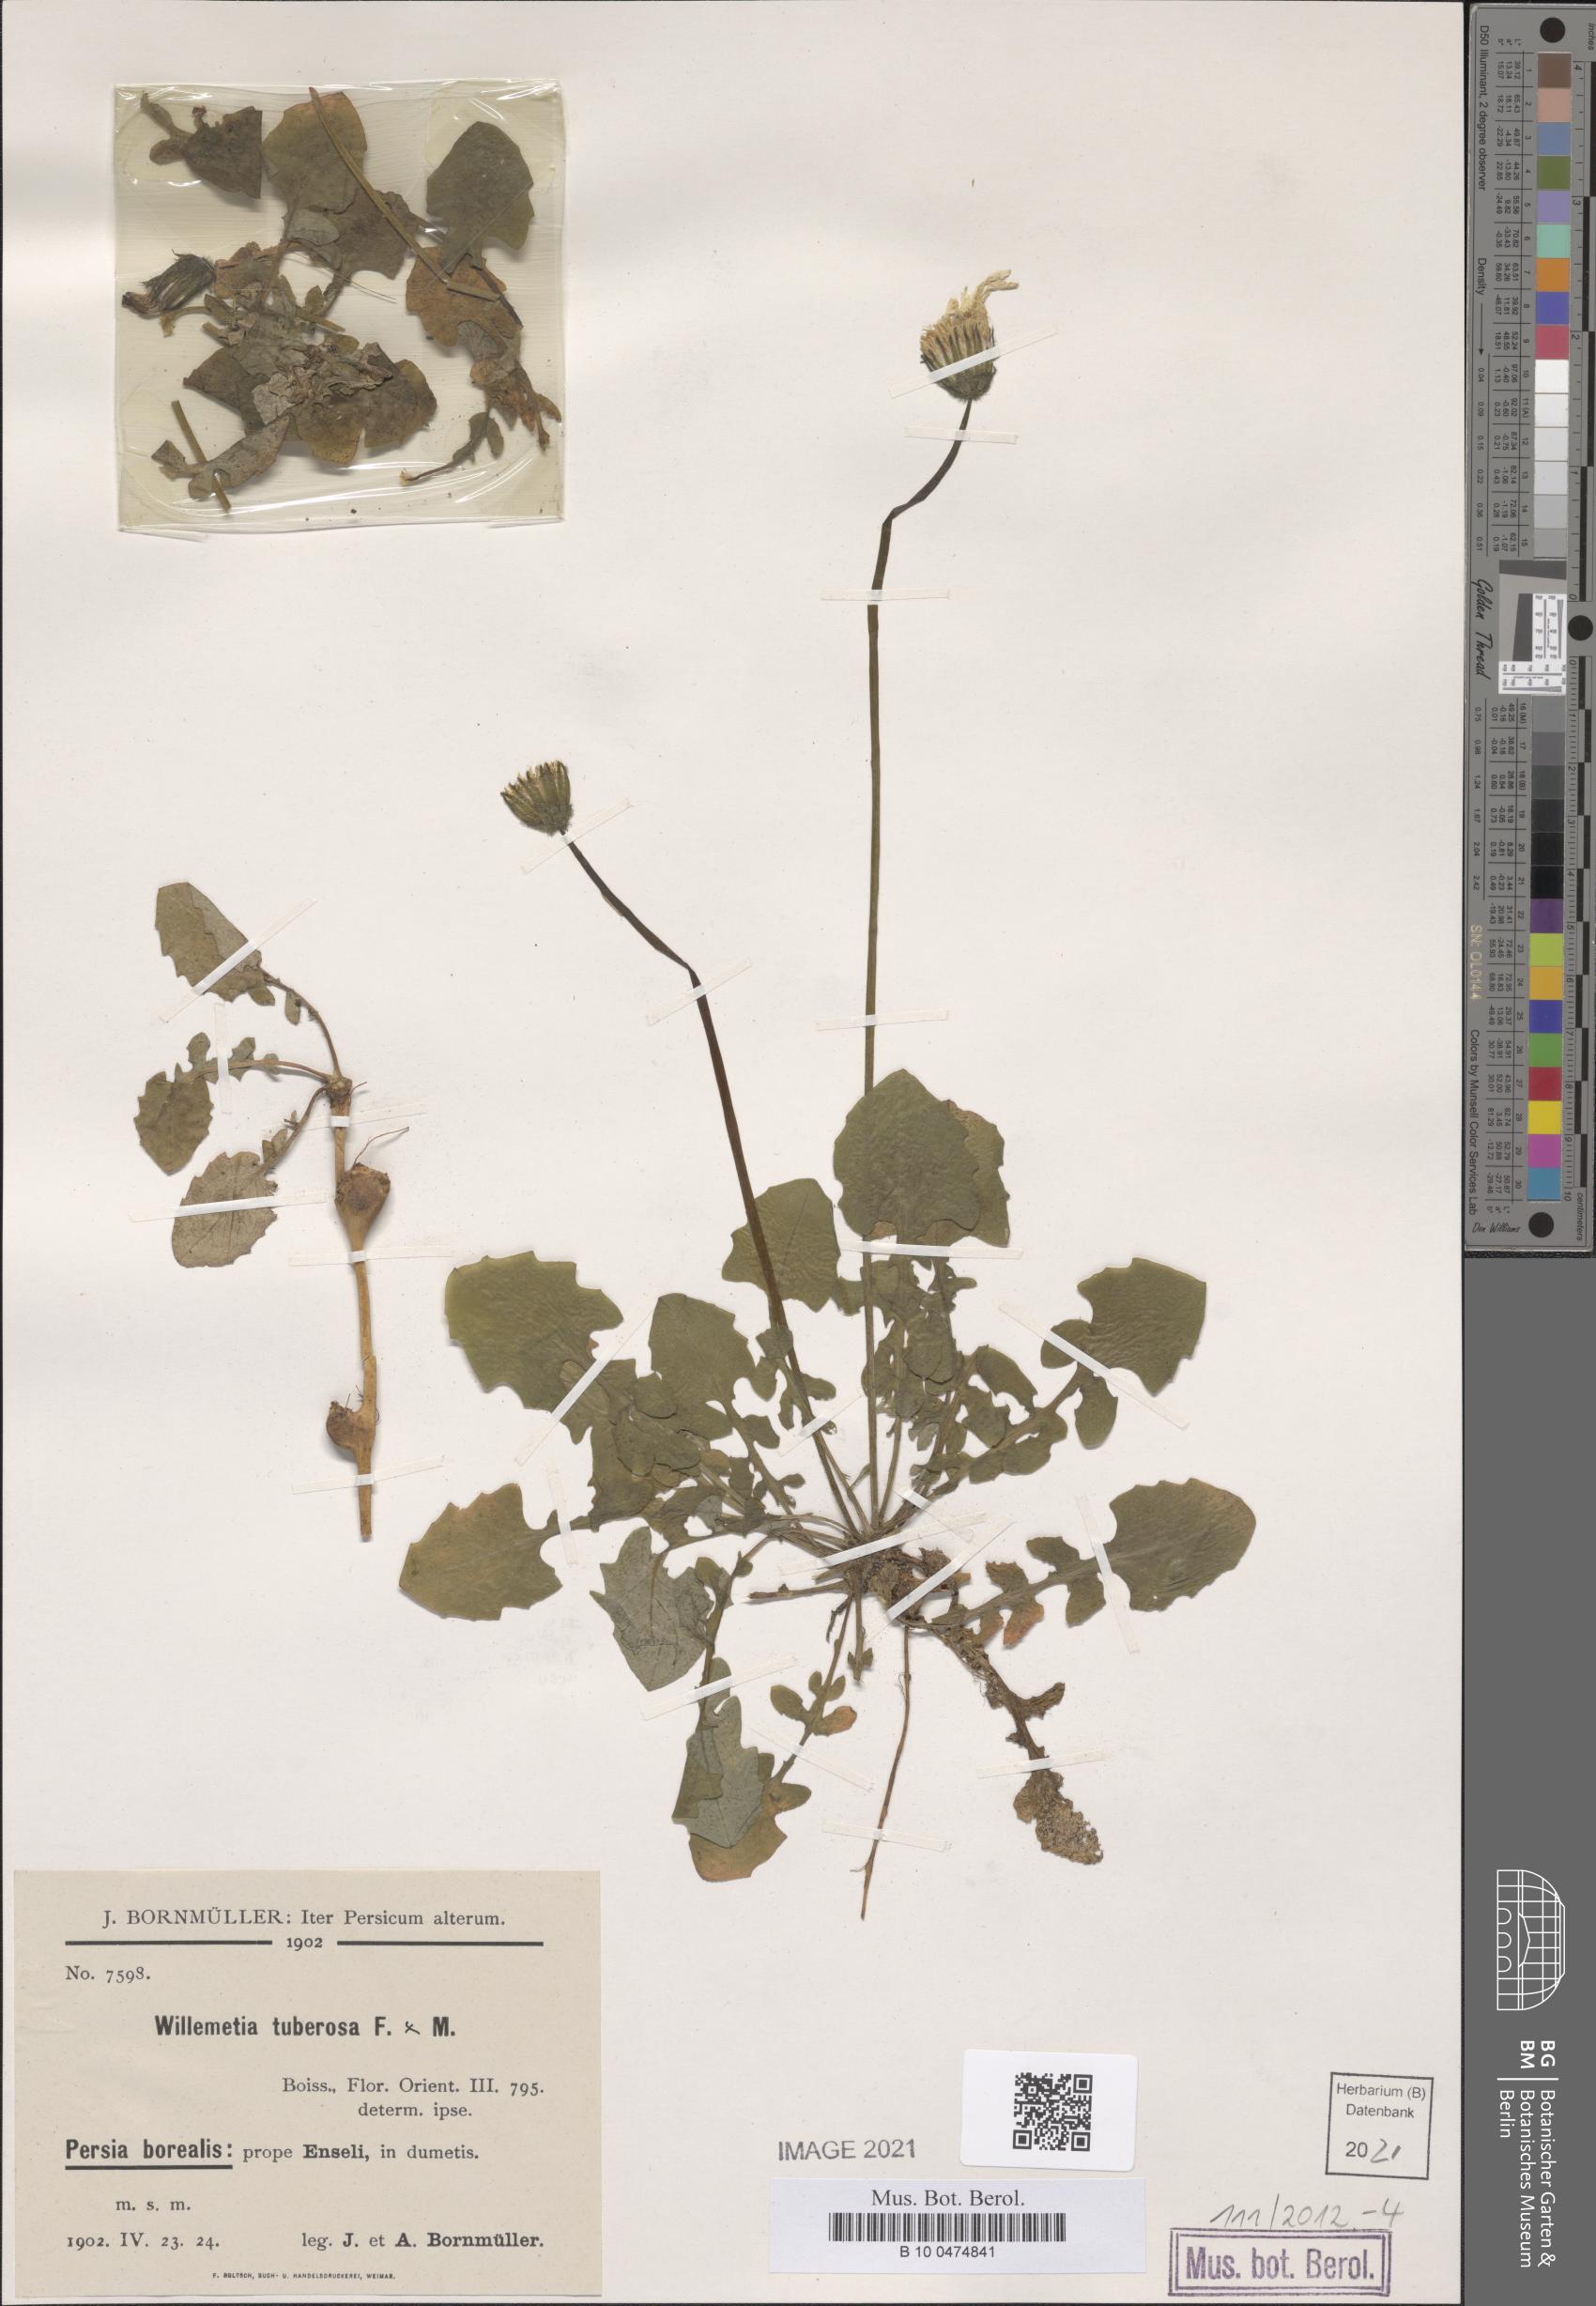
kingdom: Plantae
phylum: Tracheophyta
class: Magnoliopsida
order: Asterales
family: Asteraceae
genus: Willemetia
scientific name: Willemetia tuberosa
